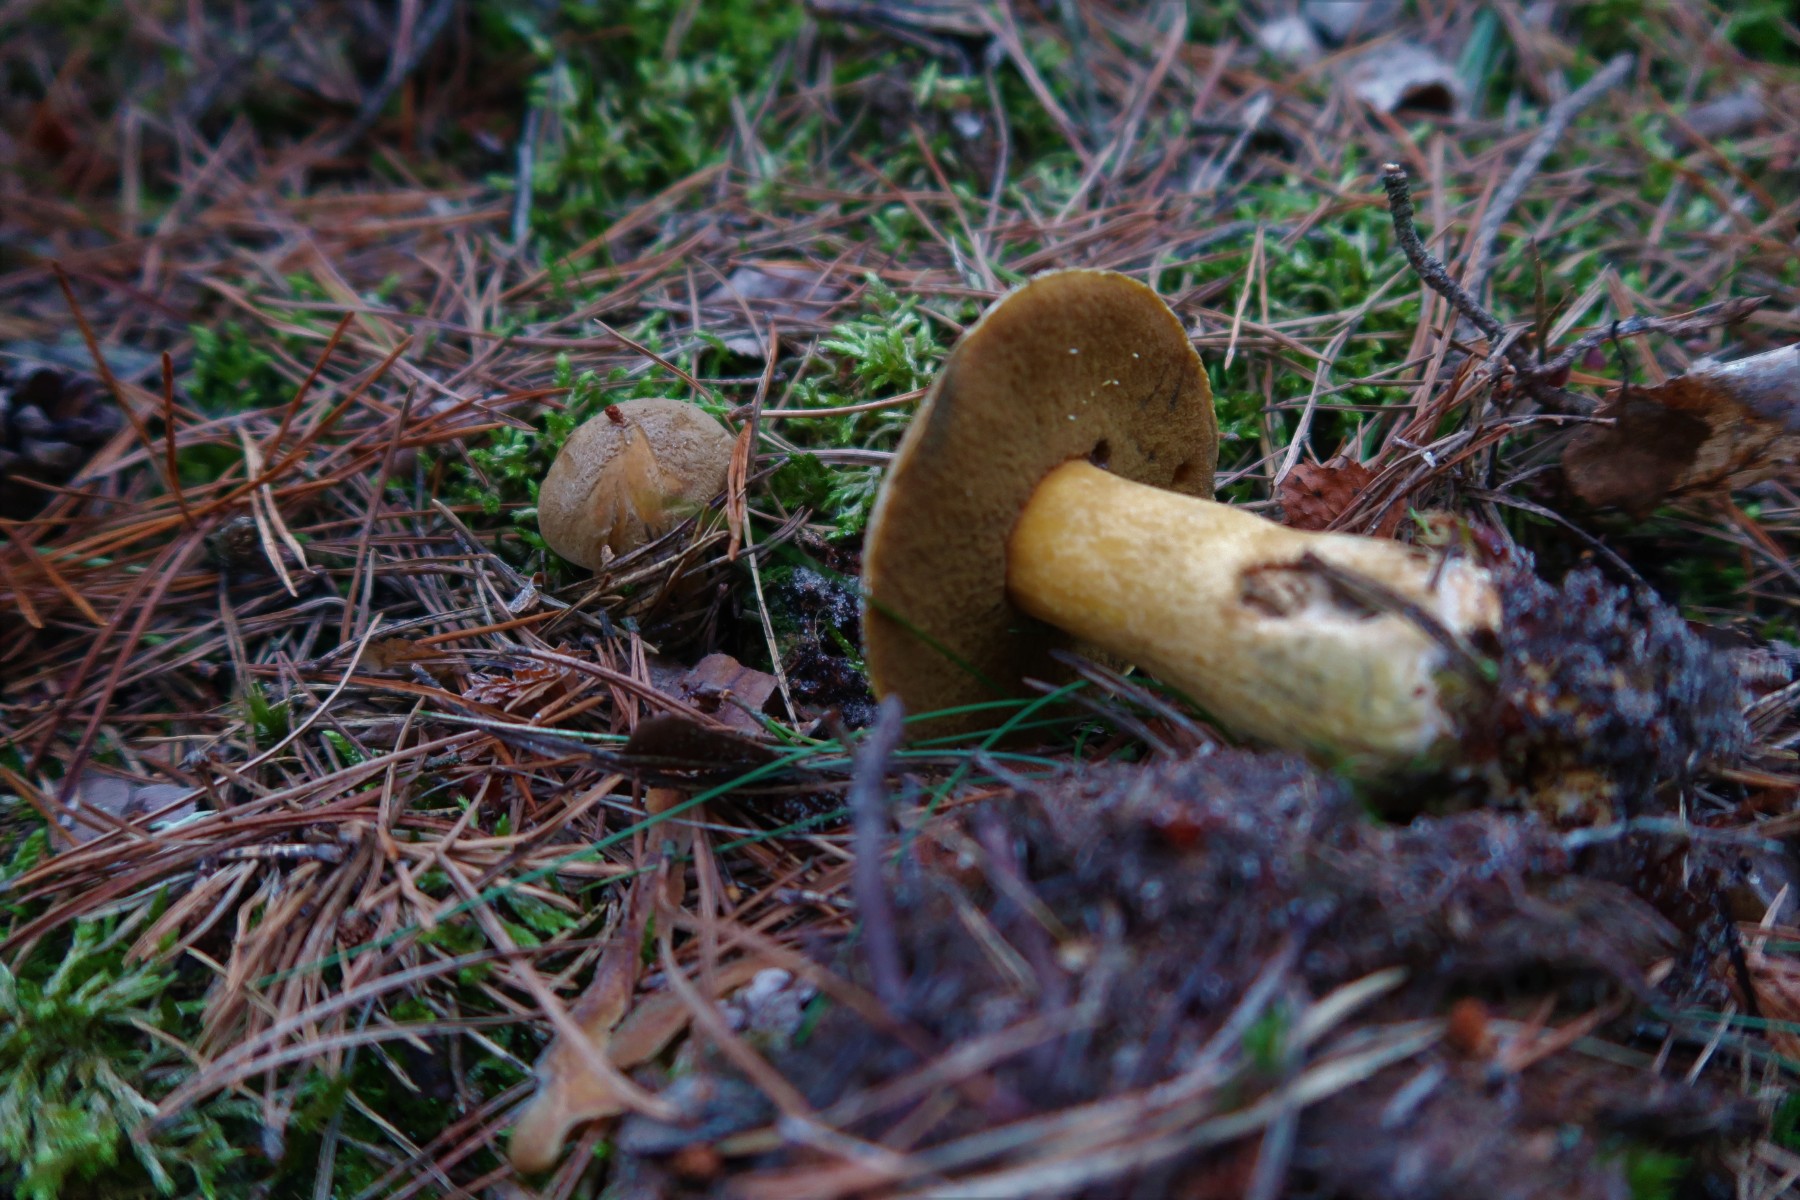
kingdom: Fungi
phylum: Basidiomycota
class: Agaricomycetes
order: Boletales
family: Suillaceae
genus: Suillus
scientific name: Suillus variegatus
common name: broget slimrørhat
